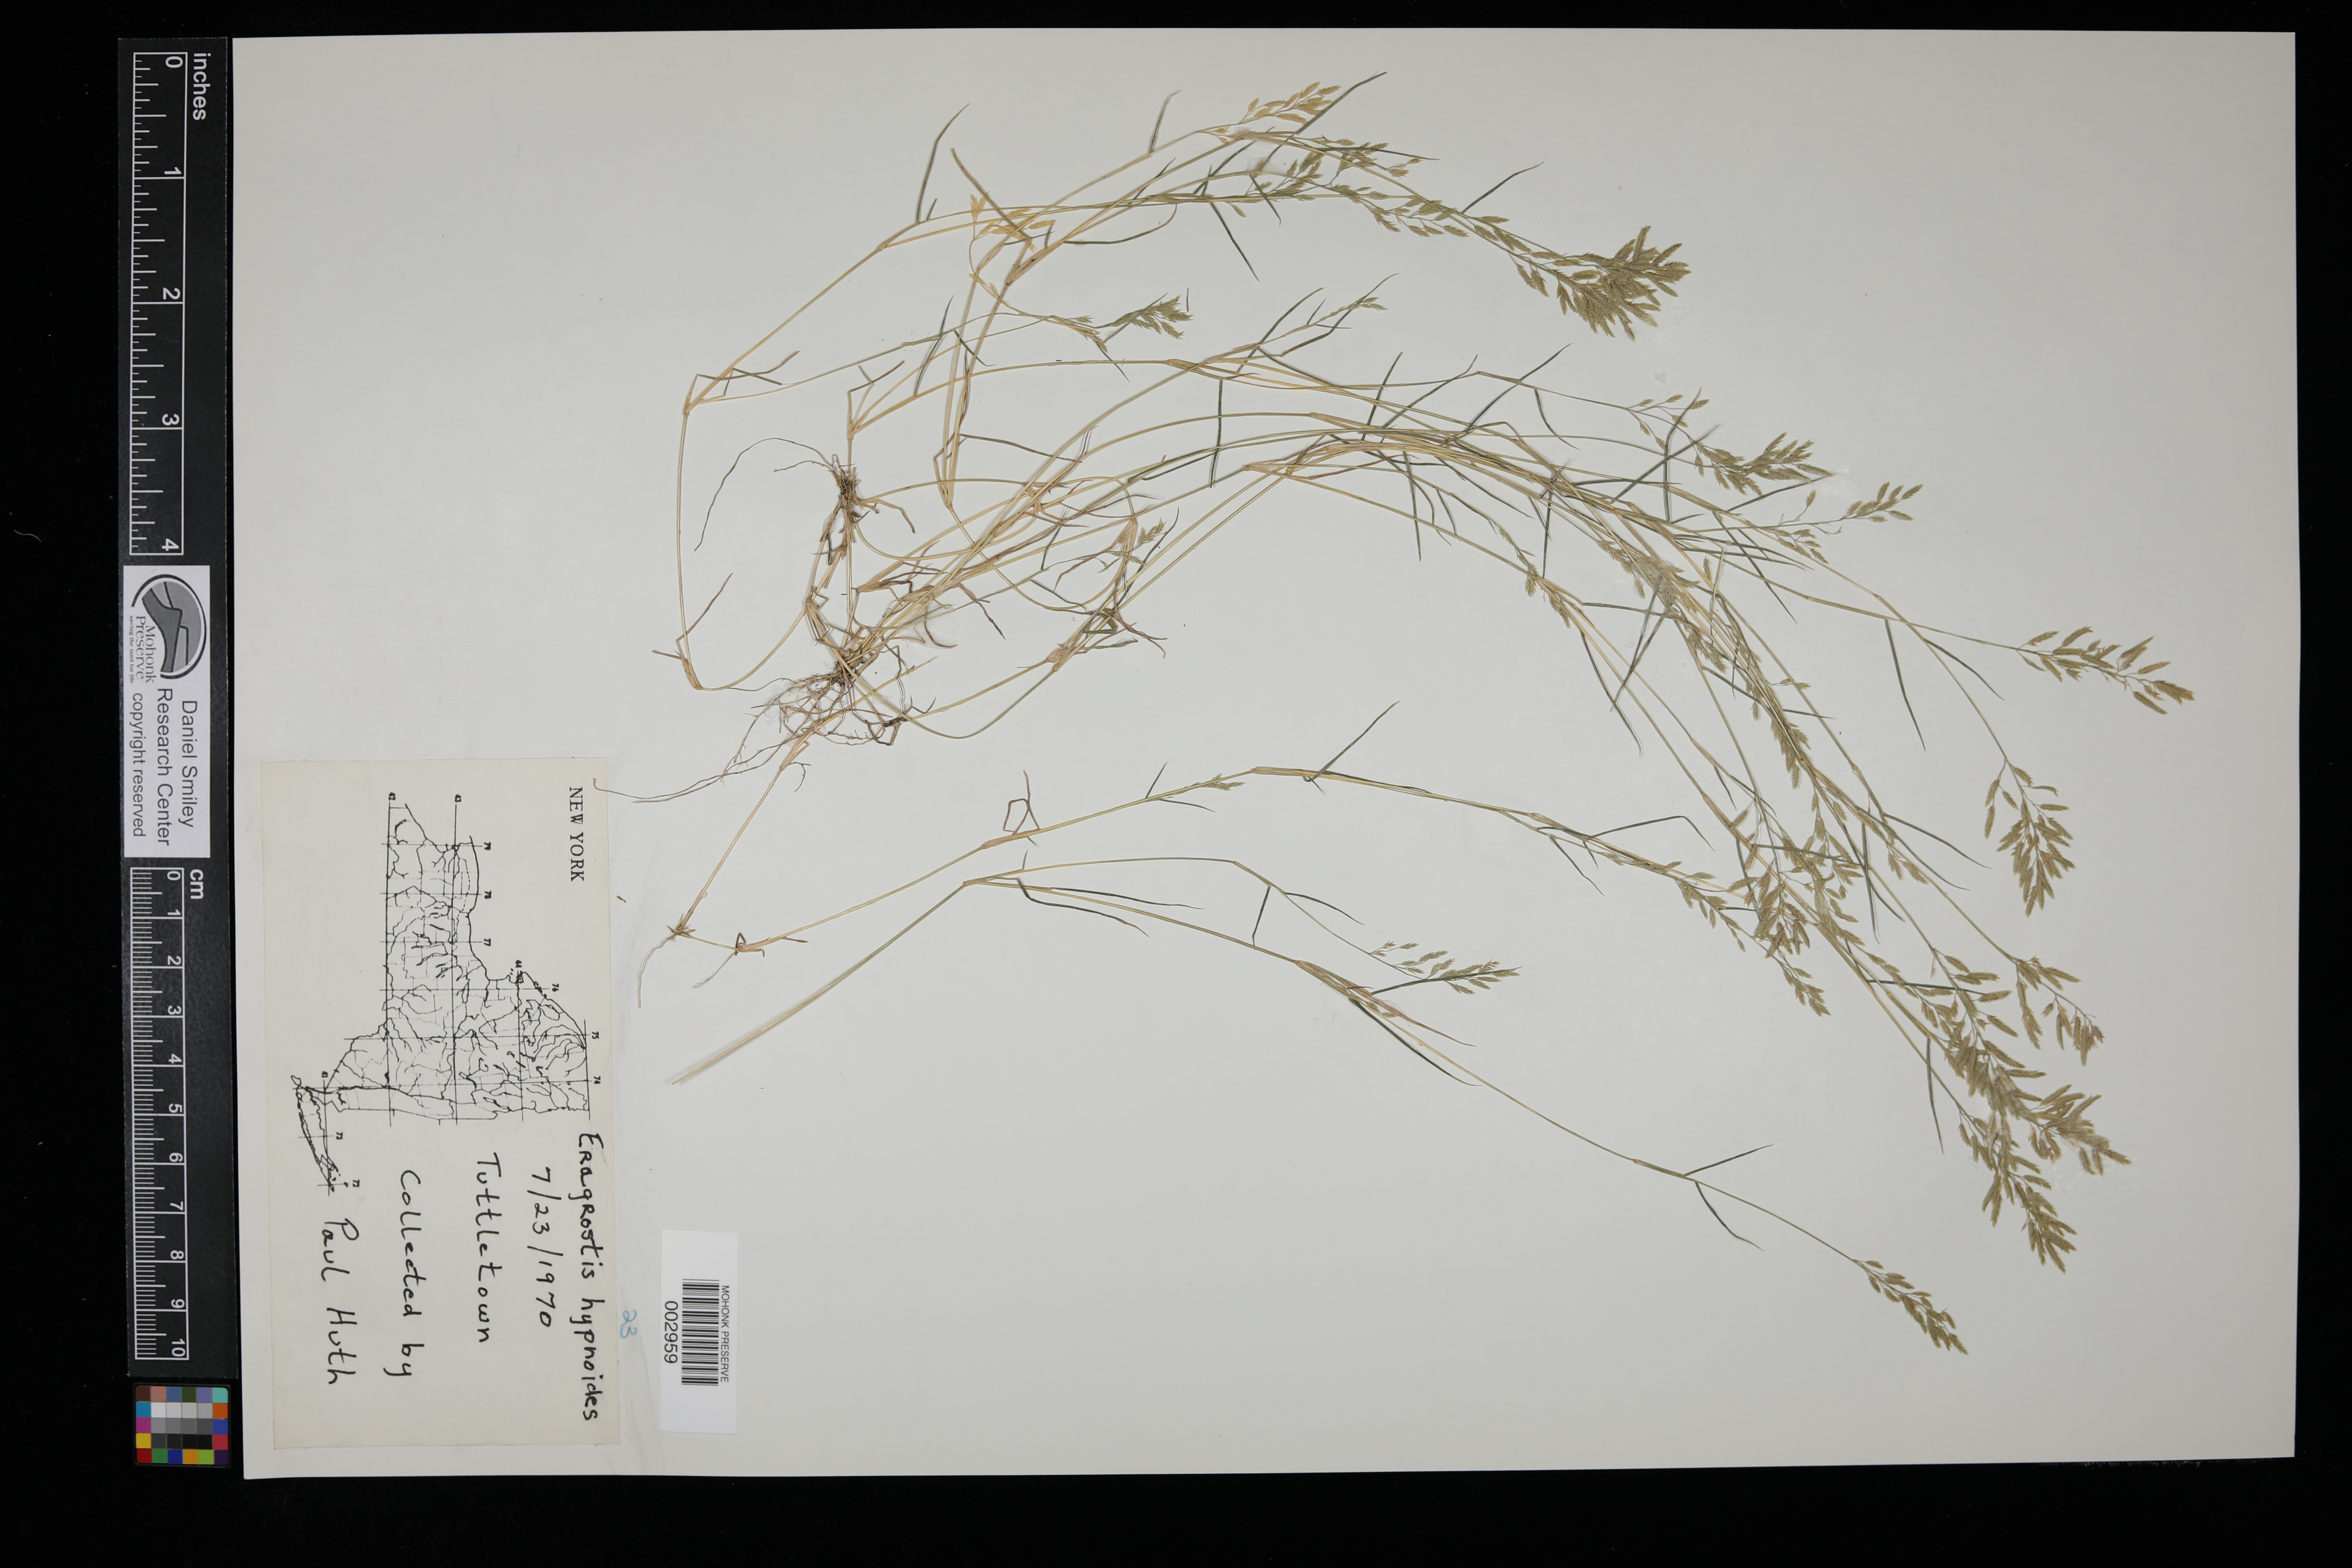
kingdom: Plantae
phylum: Tracheophyta
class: Liliopsida
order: Poales
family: Poaceae
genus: Eragrostis
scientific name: Eragrostis hypnoides
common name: Creeping love grass
